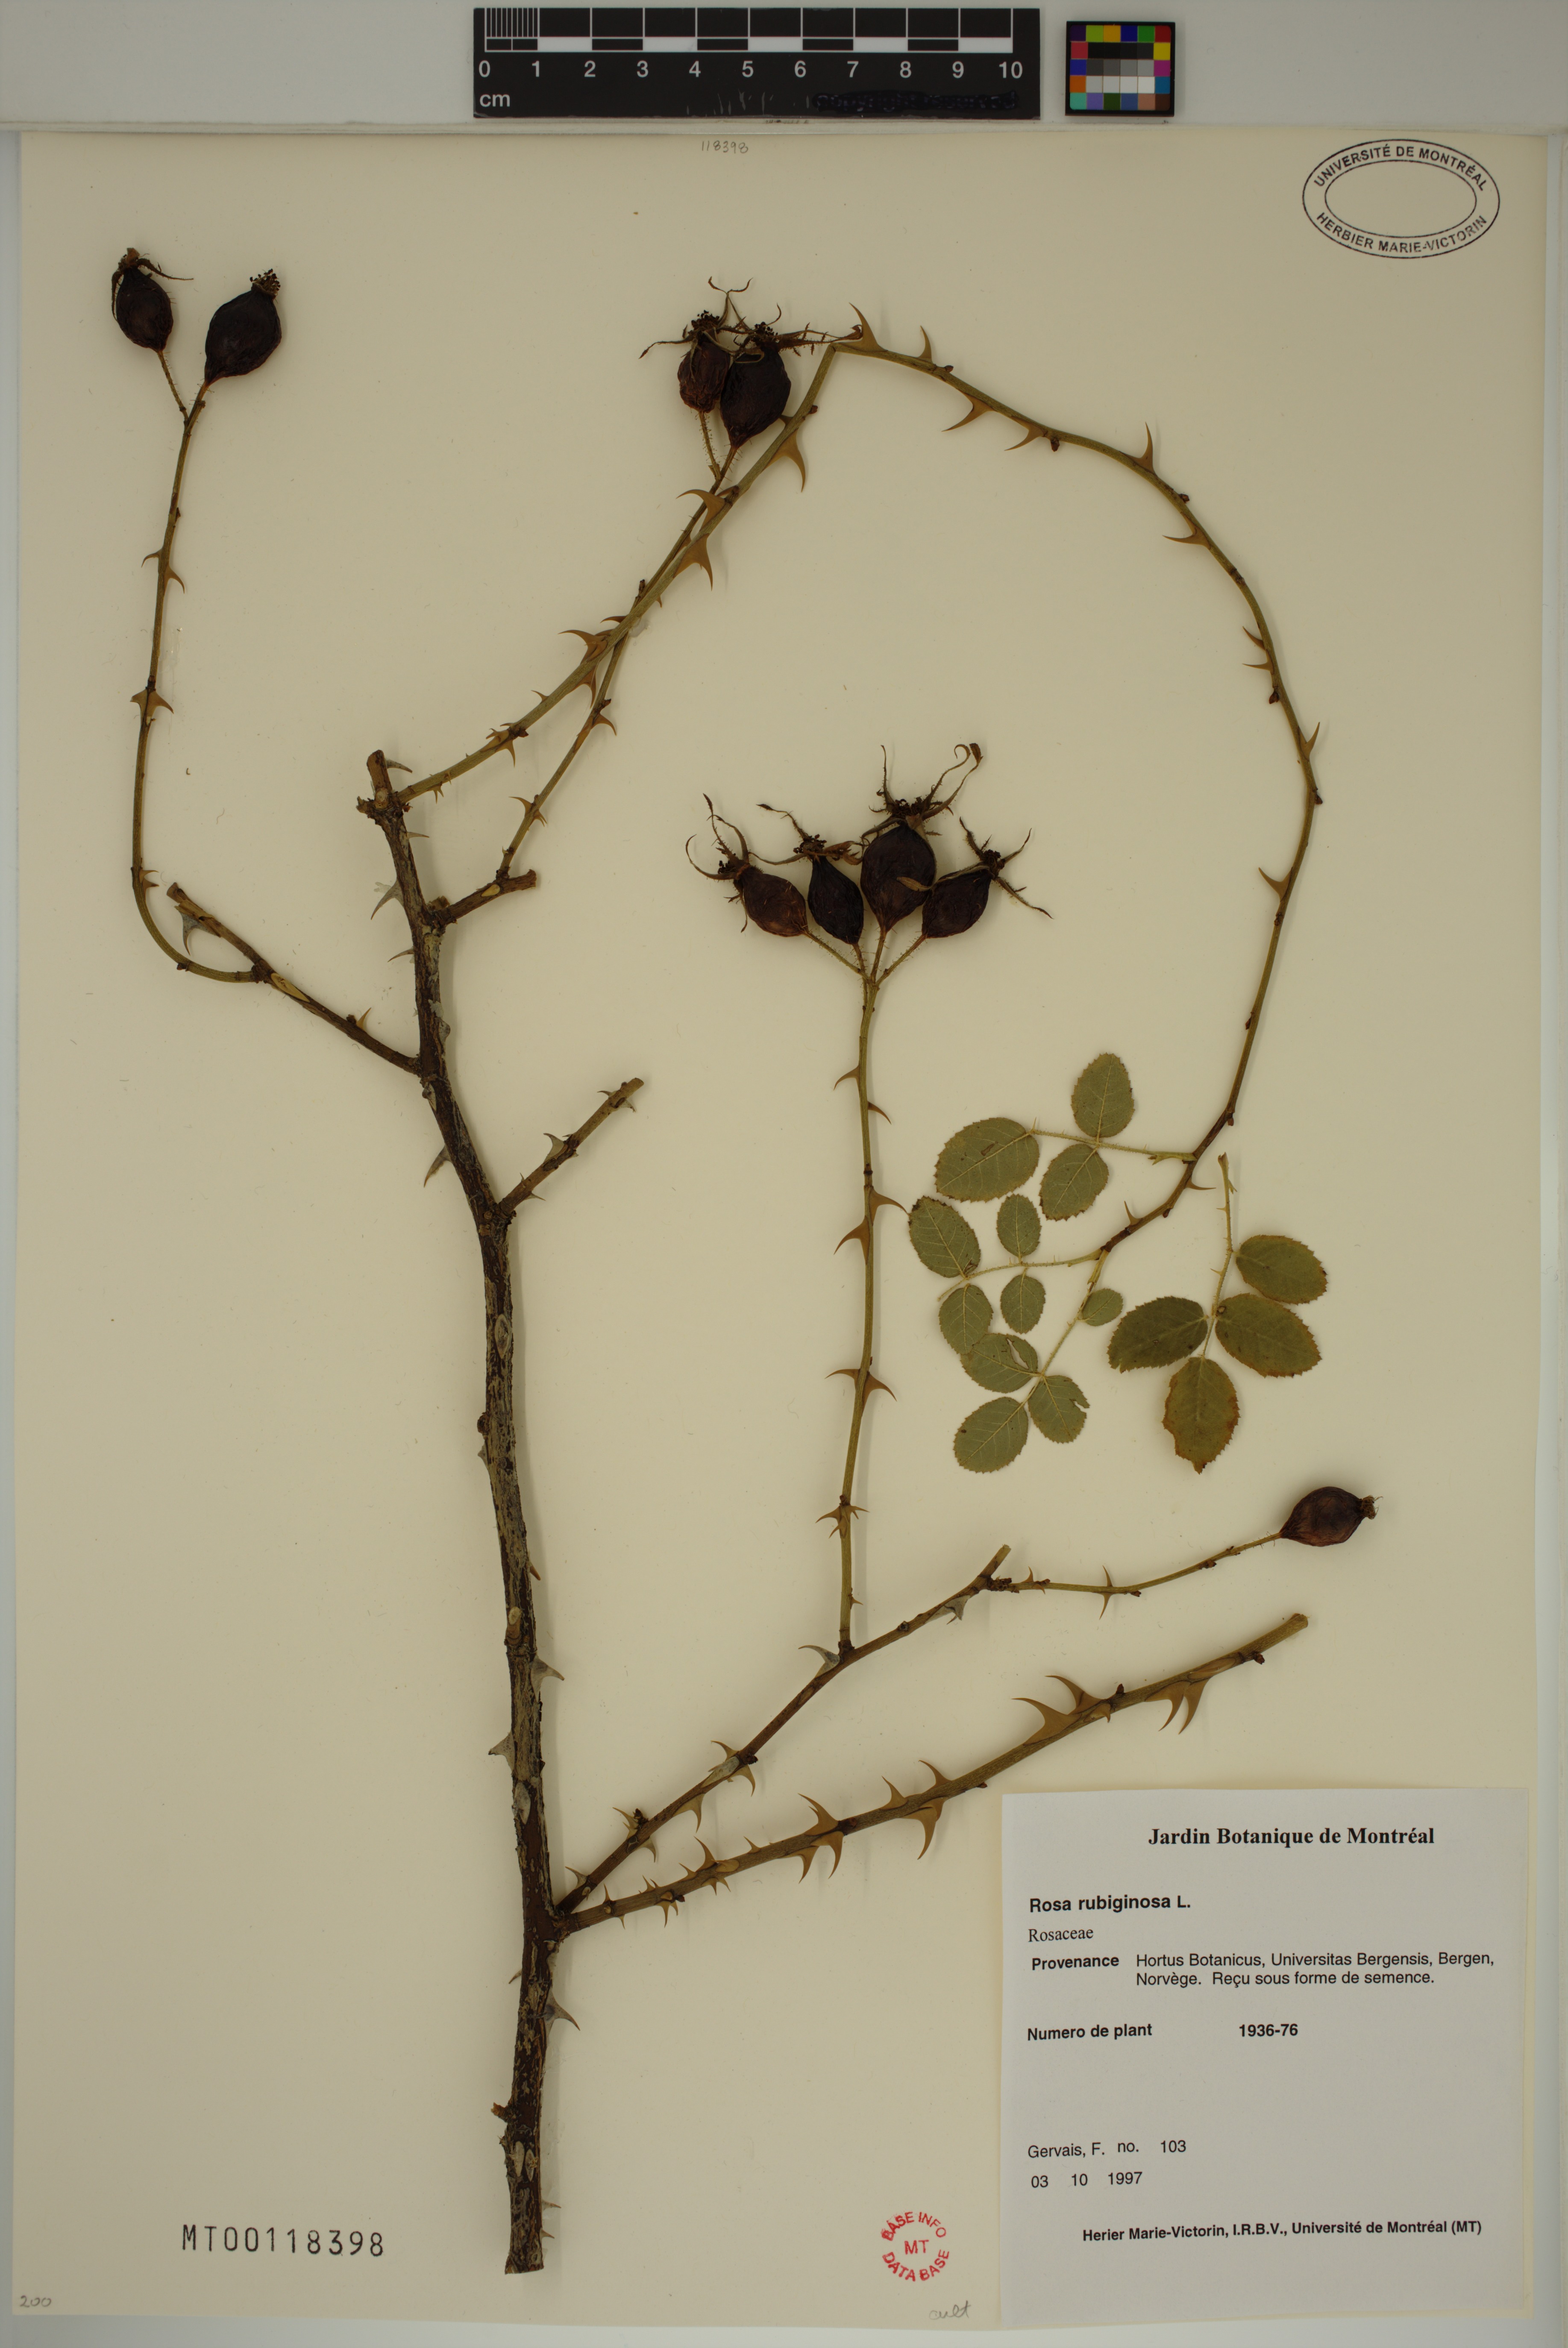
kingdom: Plantae
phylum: Tracheophyta
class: Magnoliopsida
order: Rosales
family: Rosaceae
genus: Rosa
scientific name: Rosa rubiginosa
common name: Sweet-briar
